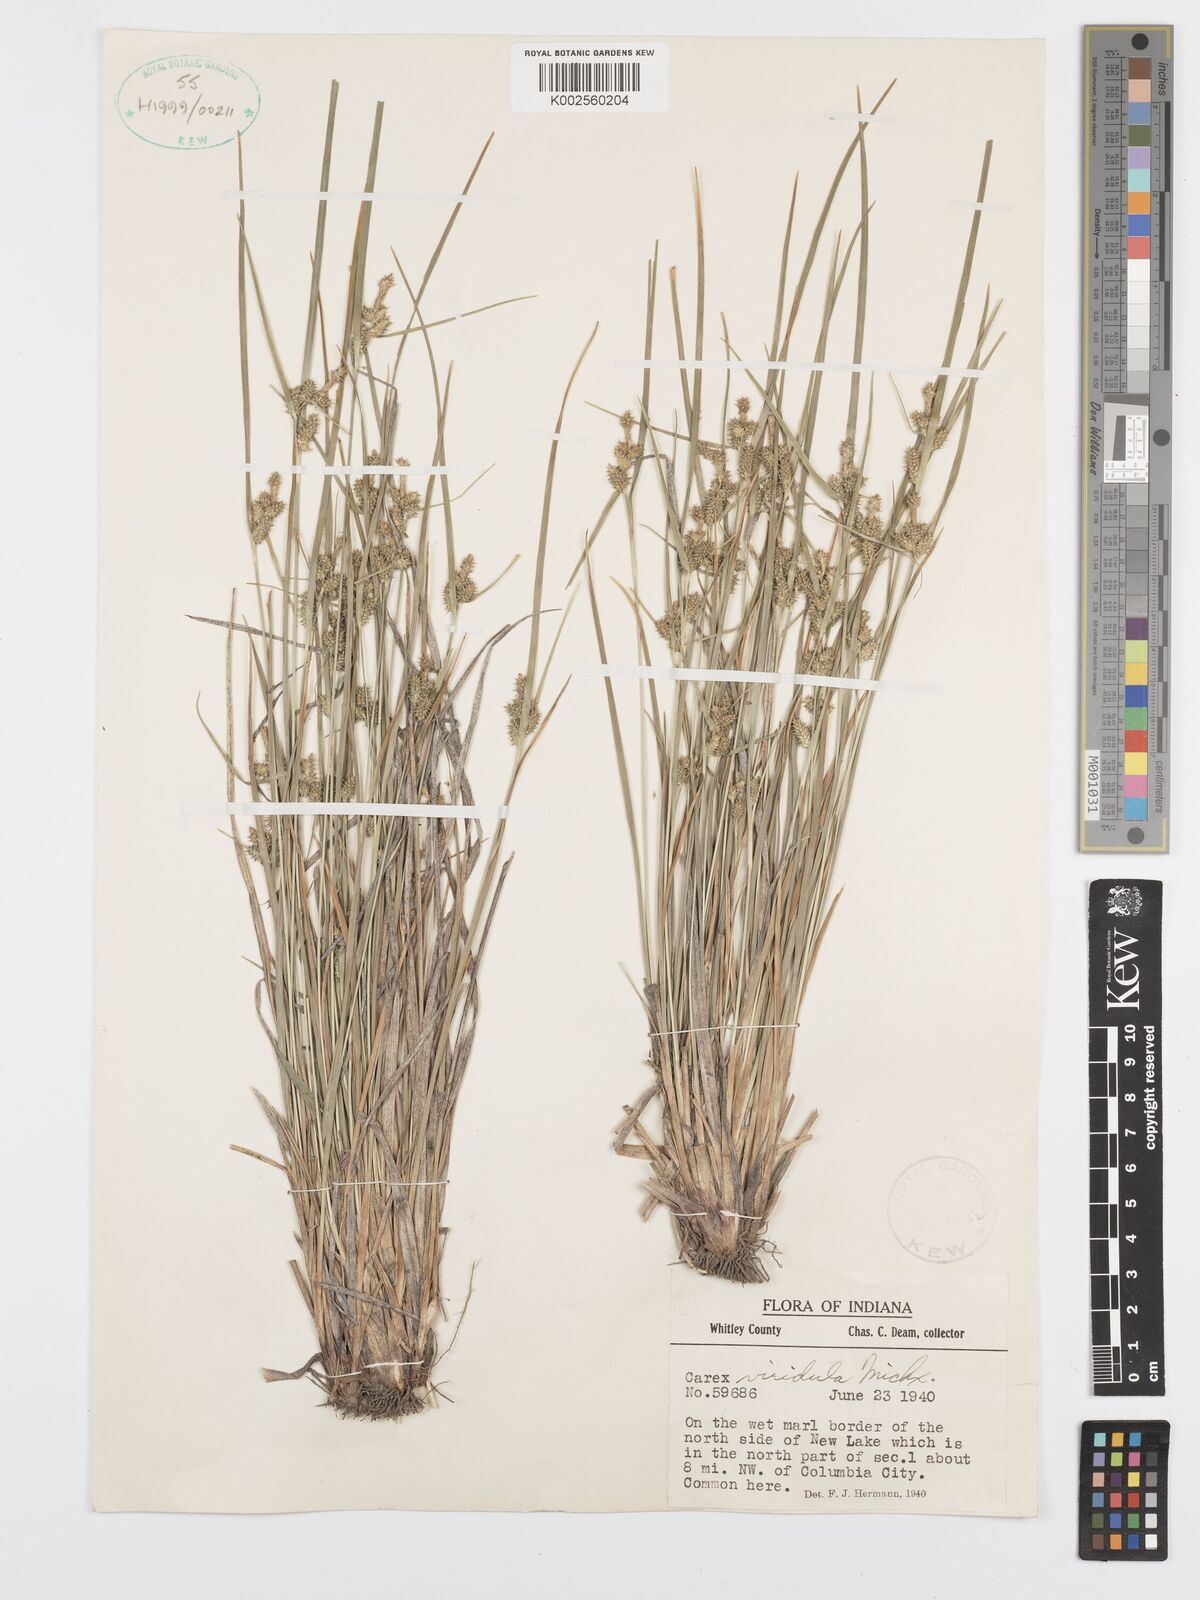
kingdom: Plantae
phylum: Tracheophyta
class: Liliopsida
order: Poales
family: Cyperaceae
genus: Carex
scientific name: Carex oederi
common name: Common & small-fruited yellow-sedge
